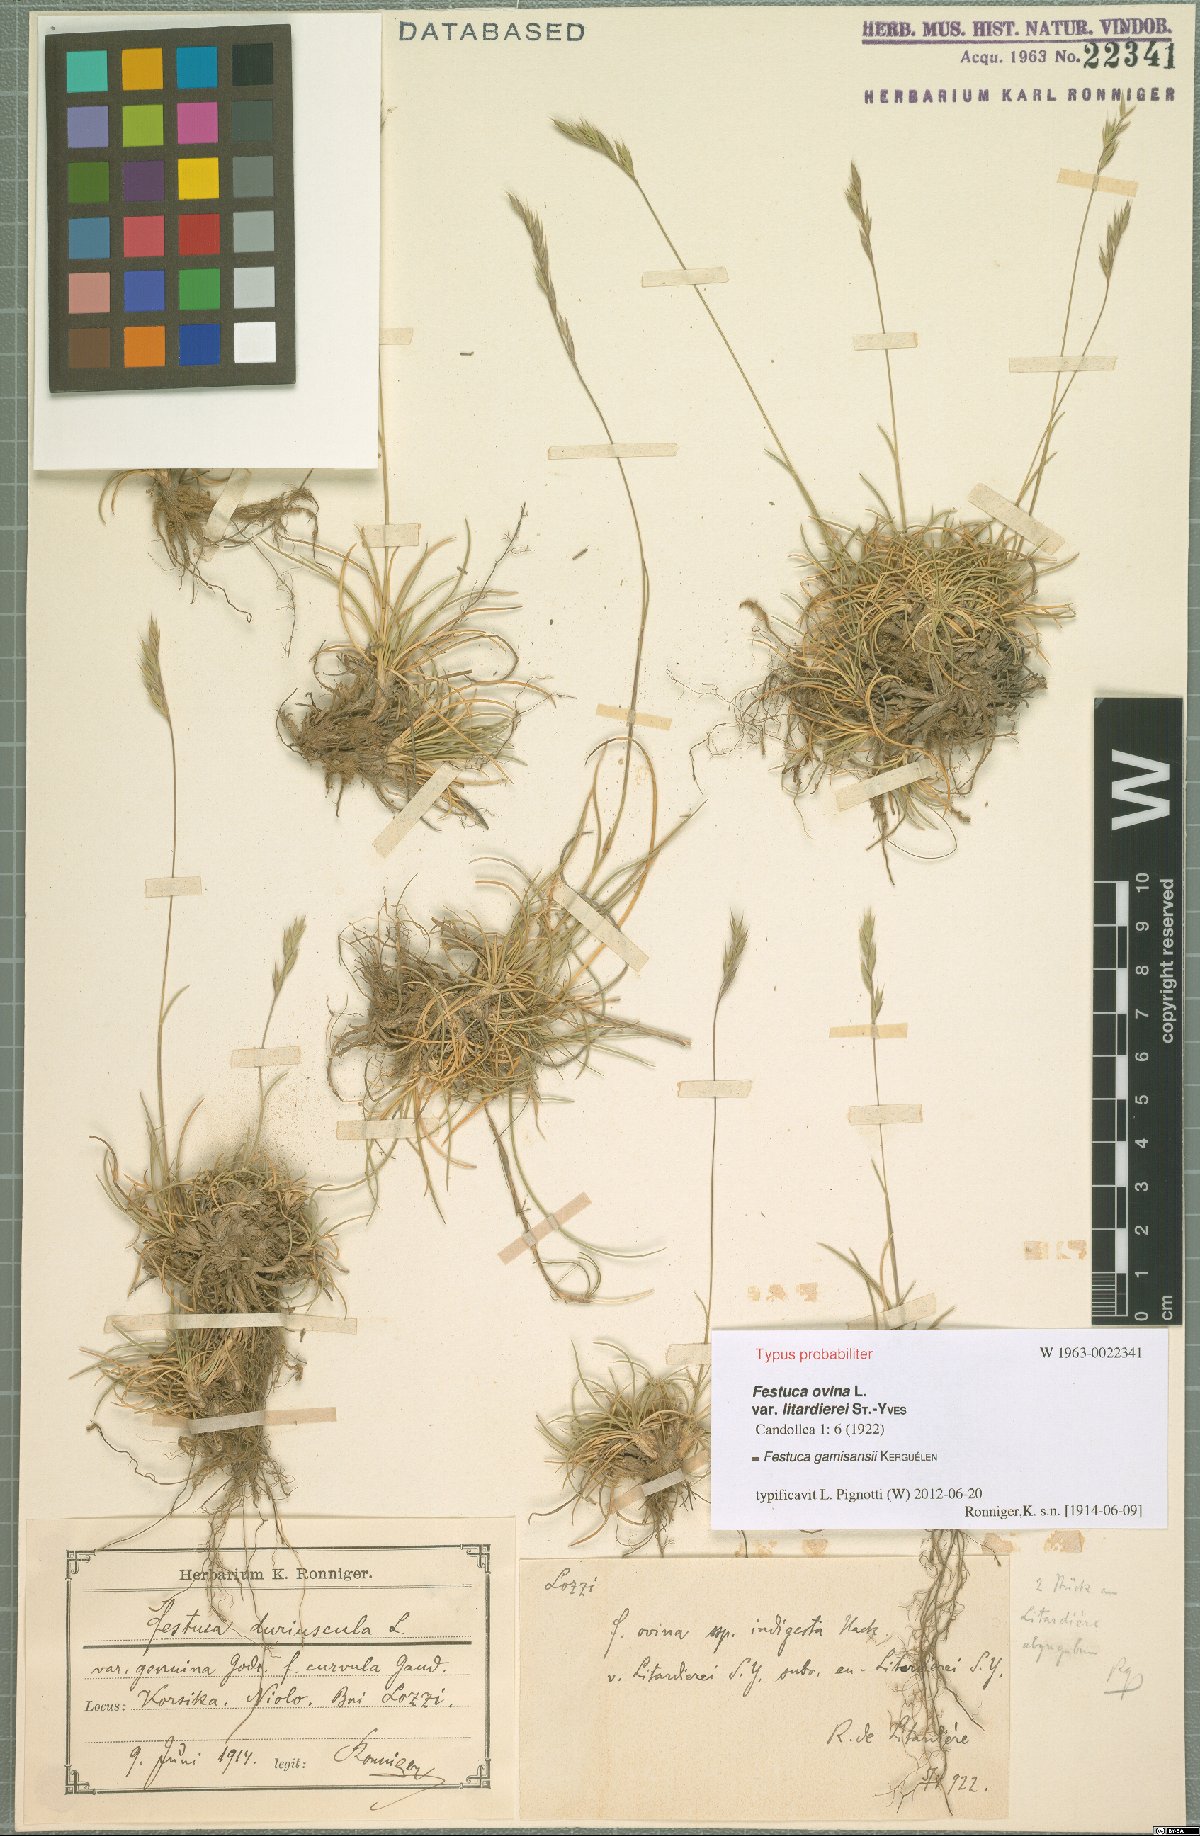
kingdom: Plantae
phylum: Tracheophyta
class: Liliopsida
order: Poales
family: Poaceae
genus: Festuca
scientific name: Festuca gamisansii
